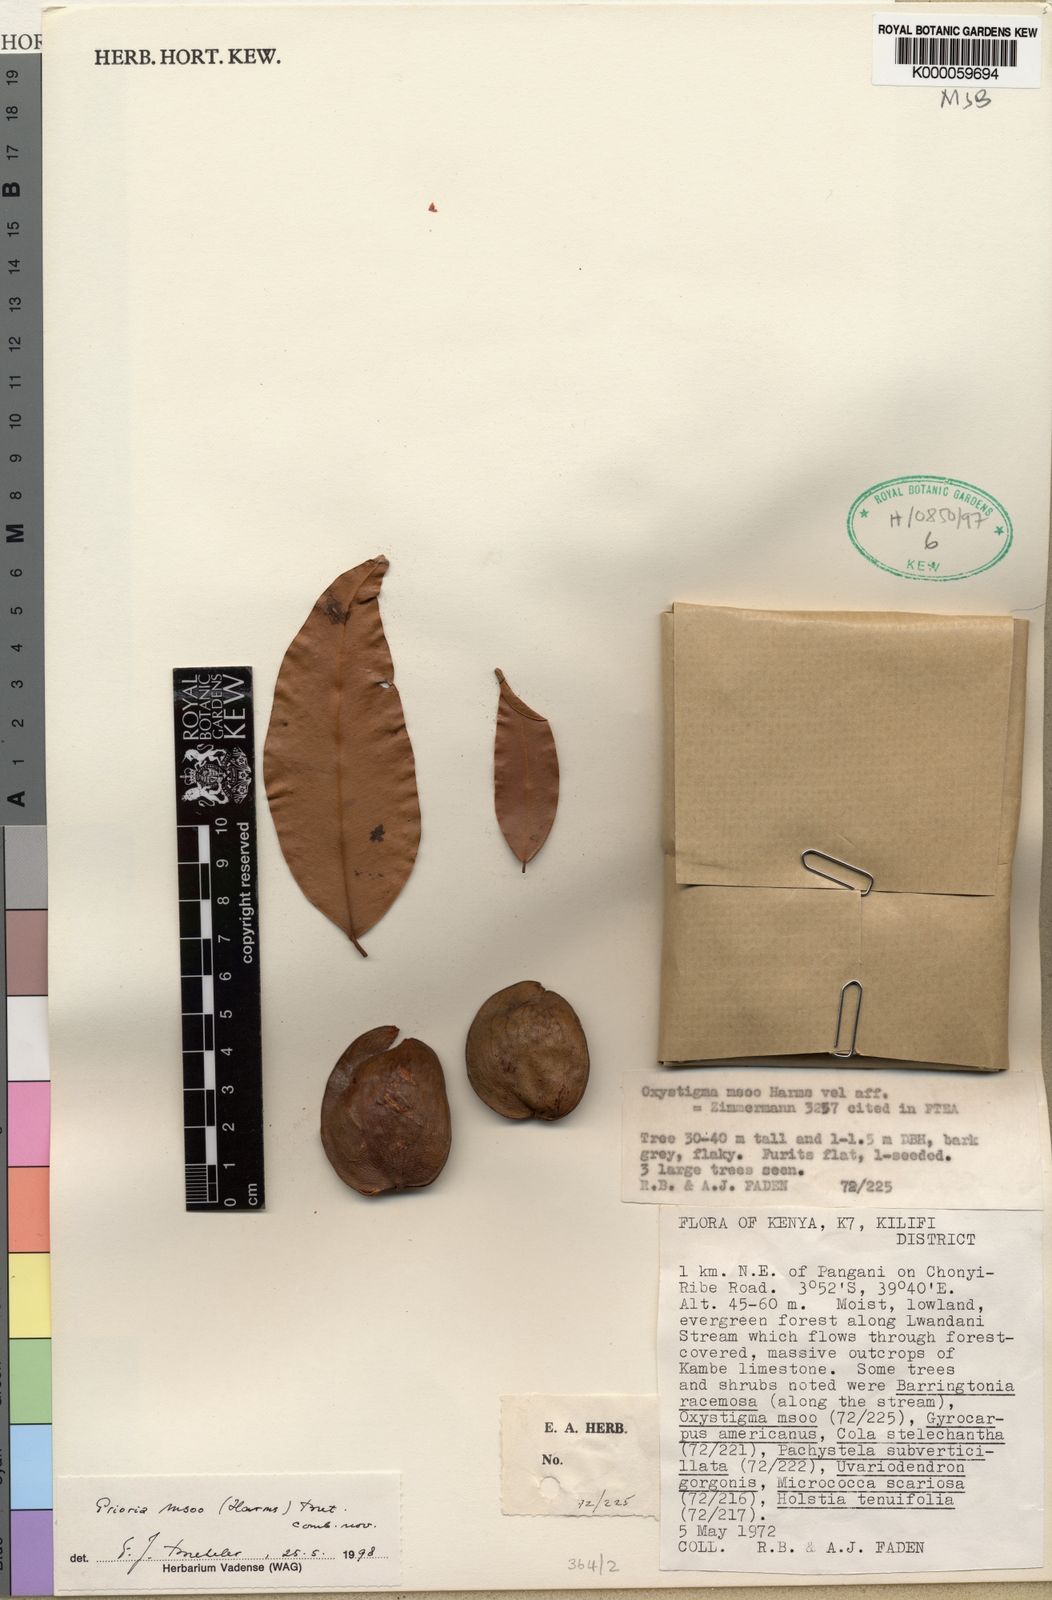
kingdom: Plantae
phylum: Tracheophyta
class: Magnoliopsida
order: Fabales
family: Fabaceae
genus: Prioria
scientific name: Prioria msoo
